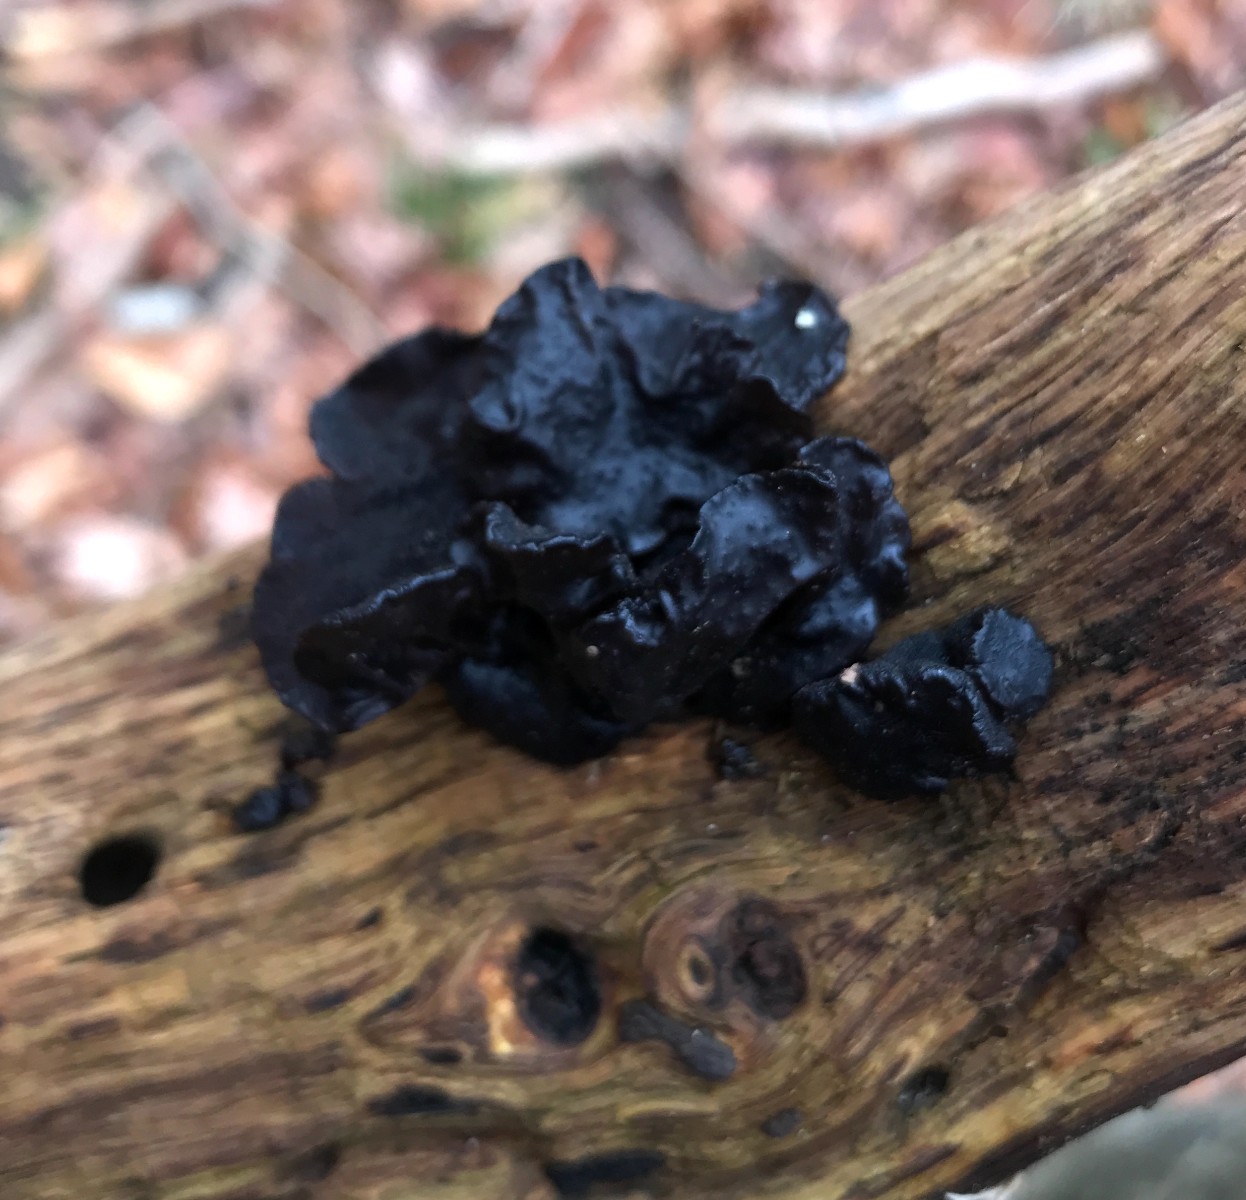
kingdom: Fungi
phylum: Basidiomycota
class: Agaricomycetes
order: Auriculariales
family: Auriculariaceae
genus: Exidia
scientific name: Exidia glandulosa
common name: ege-bævretop
